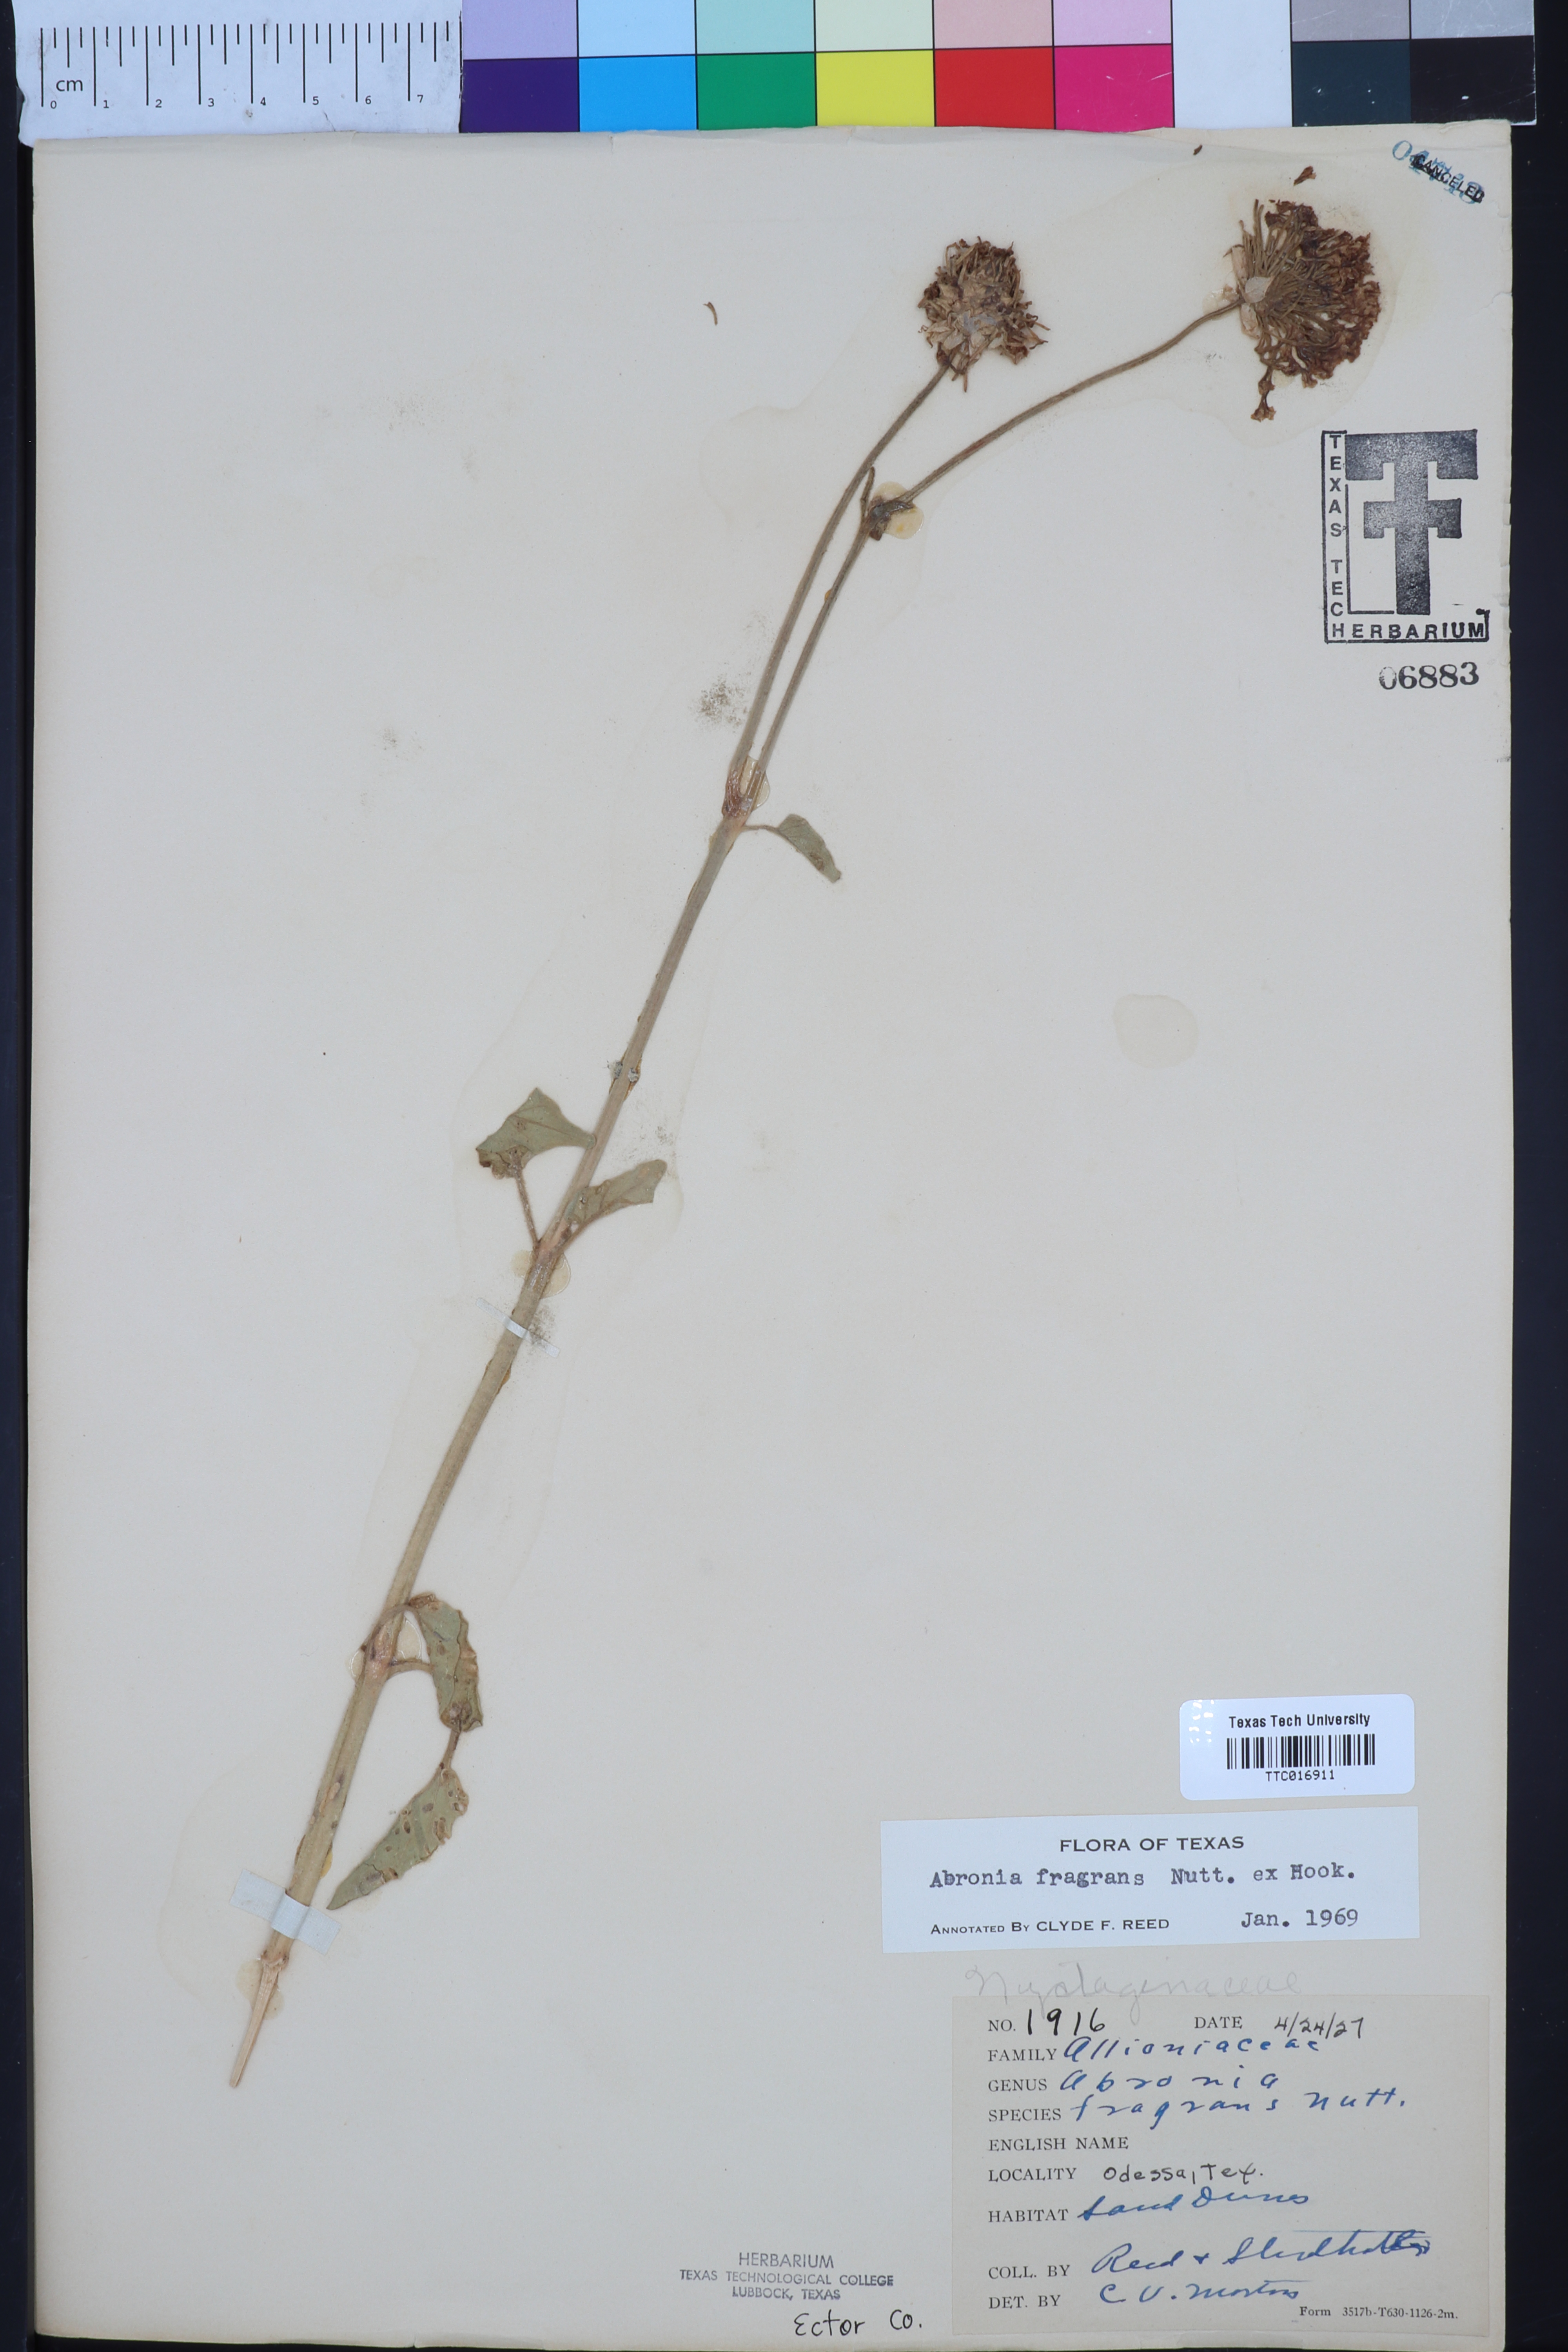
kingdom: Plantae
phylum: Tracheophyta
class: Magnoliopsida
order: Caryophyllales
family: Nyctaginaceae
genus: Abronia
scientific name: Abronia fragrans
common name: Fragrant sand-verbena
